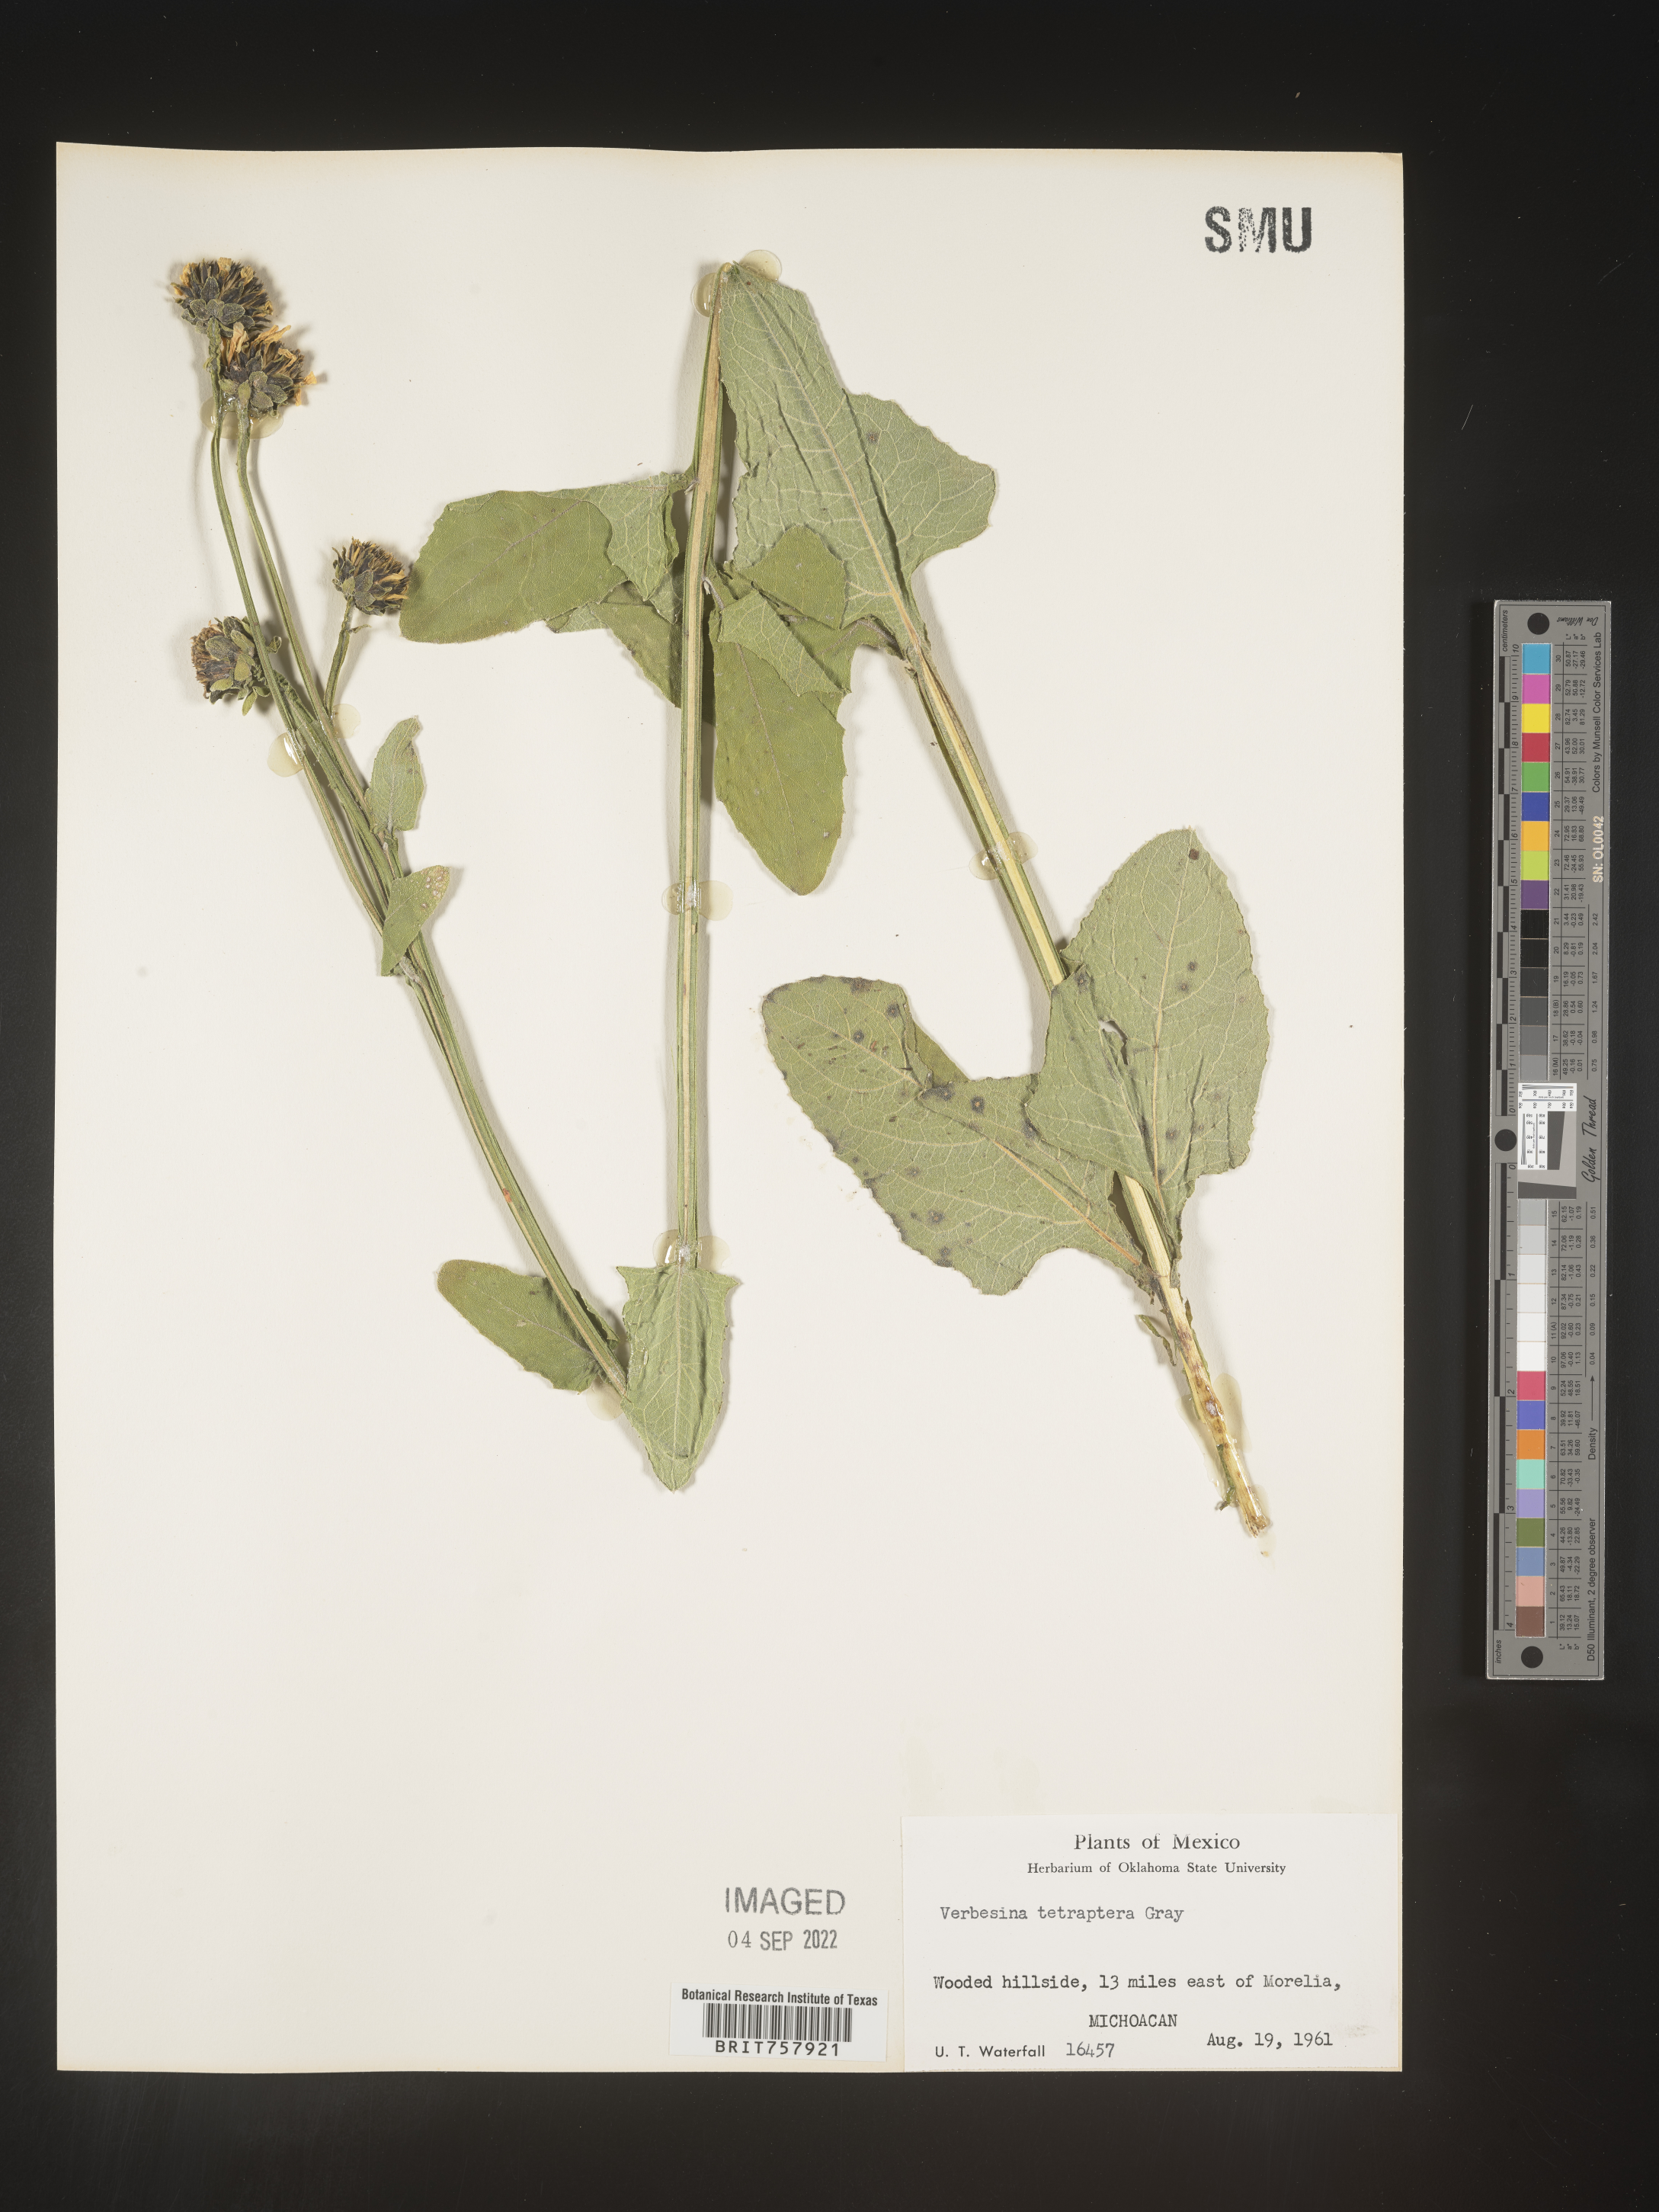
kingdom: Plantae
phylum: Tracheophyta
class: Magnoliopsida
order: Asterales
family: Asteraceae
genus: Verbesina
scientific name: Verbesina
